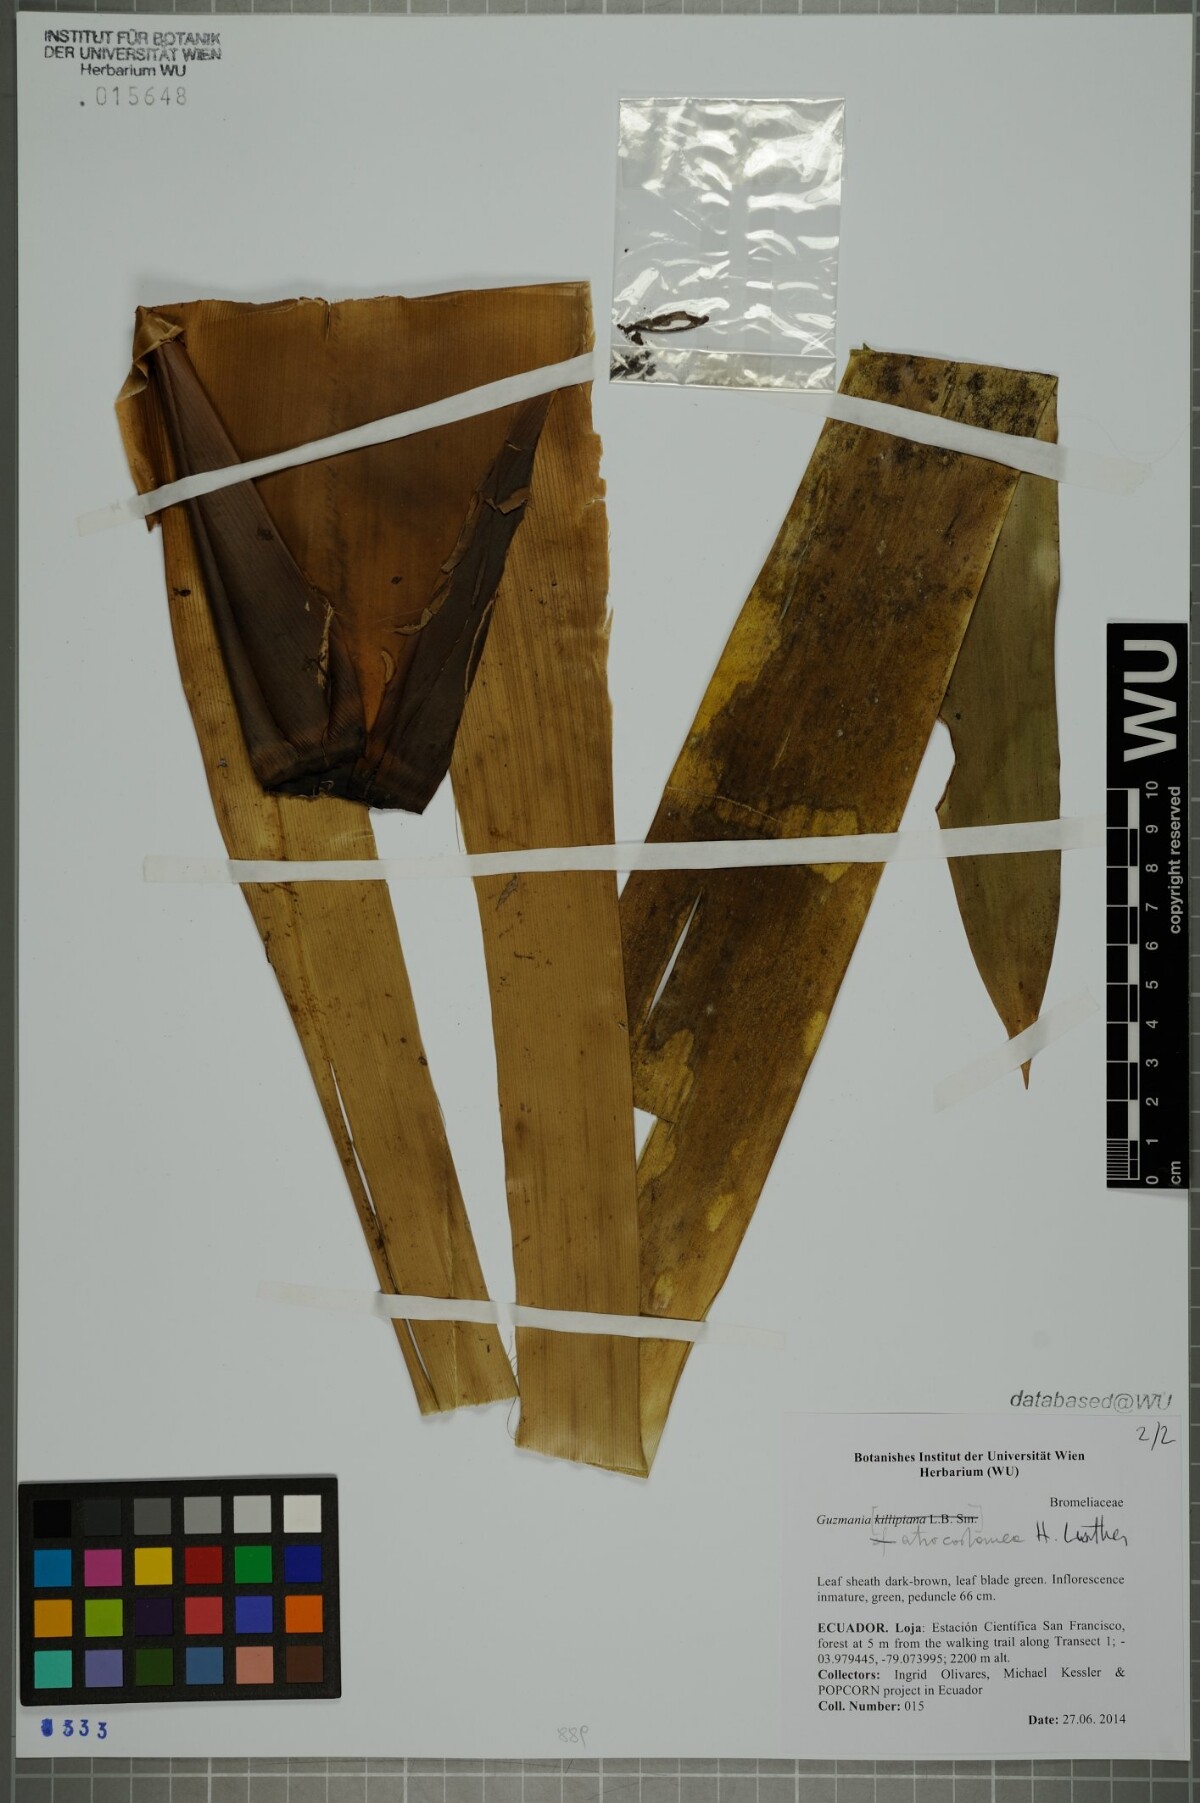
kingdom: Plantae
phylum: Tracheophyta
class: Liliopsida
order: Poales
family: Bromeliaceae
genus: Guzmania
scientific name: Guzmania atrocastanea
